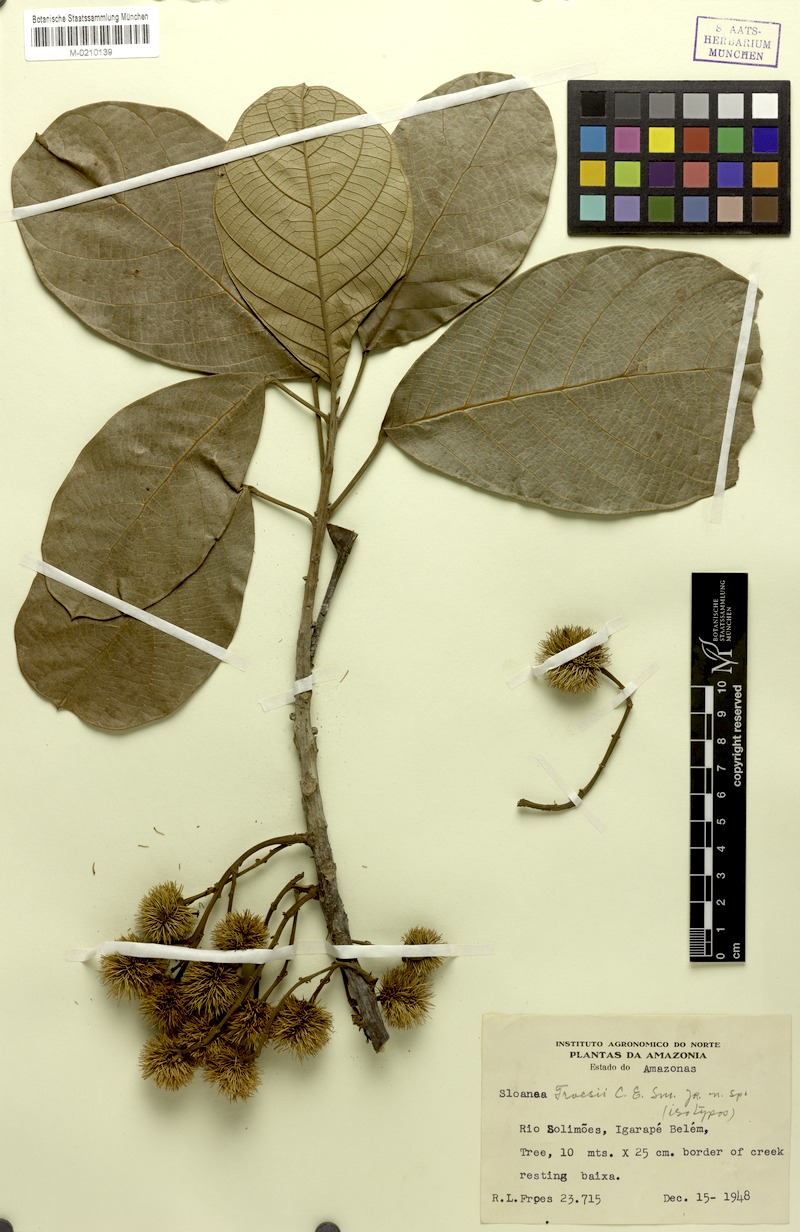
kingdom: Plantae
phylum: Tracheophyta
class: Magnoliopsida
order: Oxalidales
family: Elaeocarpaceae
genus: Sloanea
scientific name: Sloanea froesii
